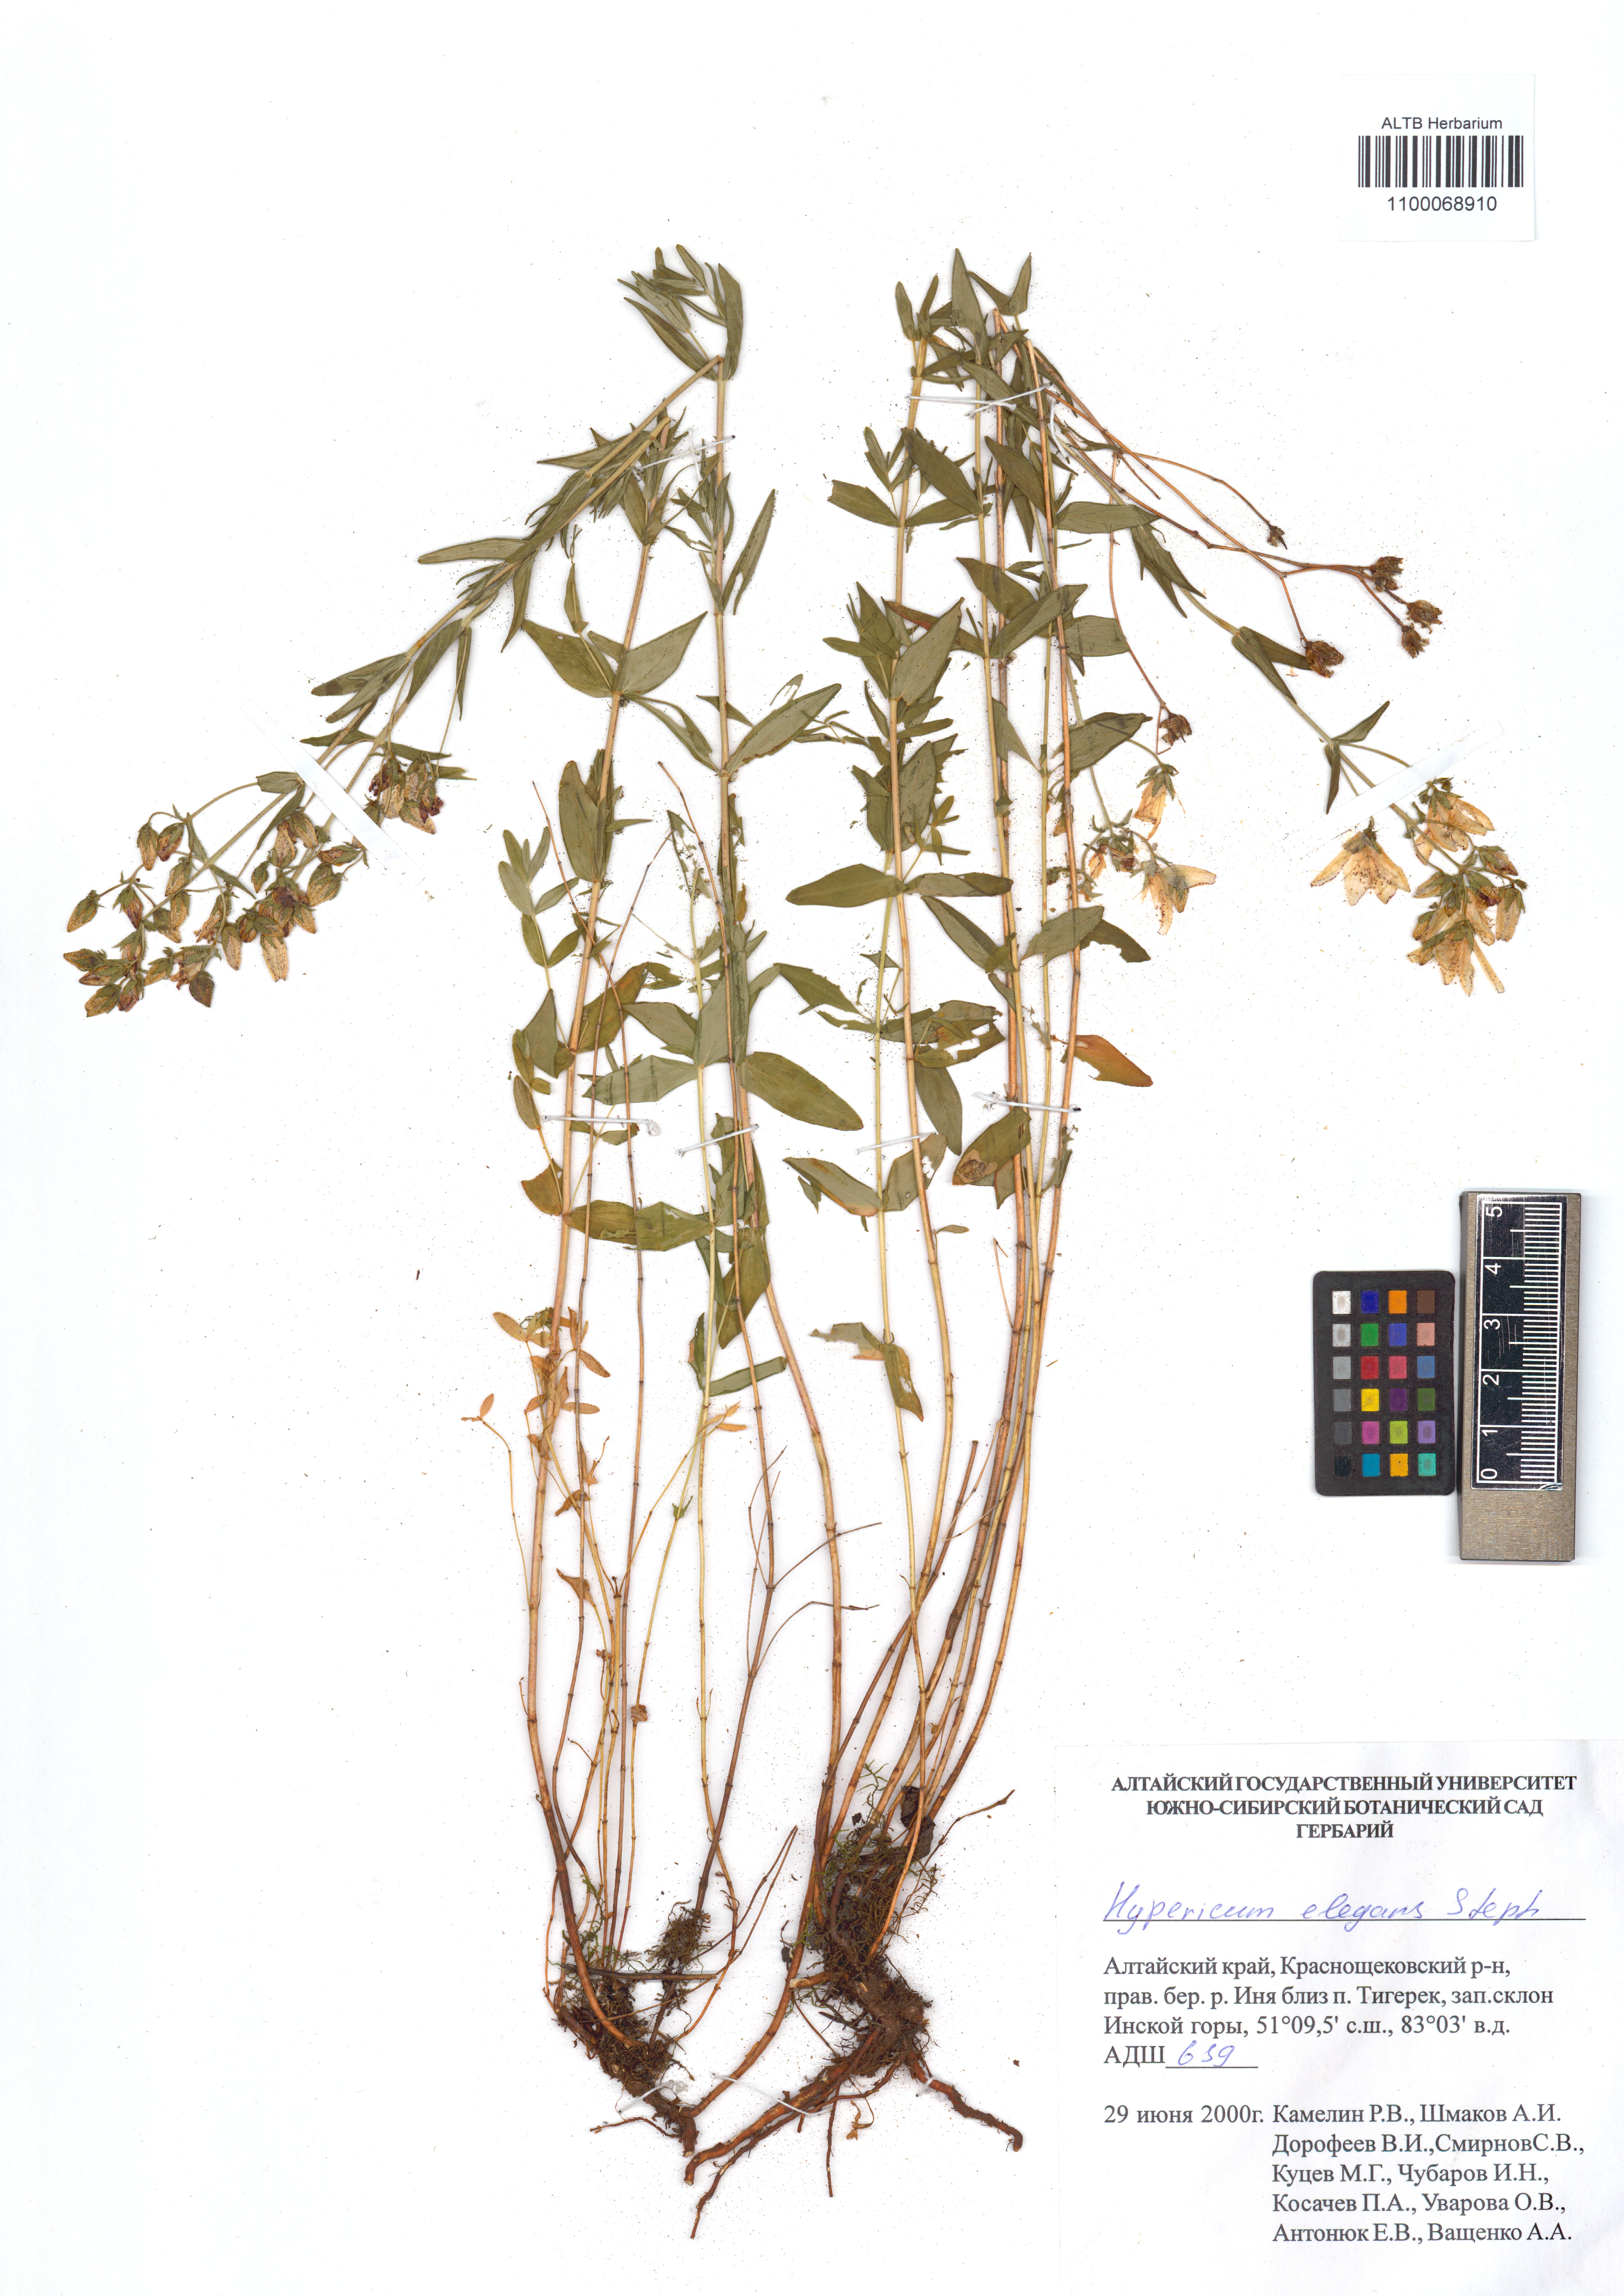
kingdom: Plantae
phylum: Tracheophyta
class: Magnoliopsida
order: Malpighiales
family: Hypericaceae
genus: Hypericum
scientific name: Hypericum elegans
